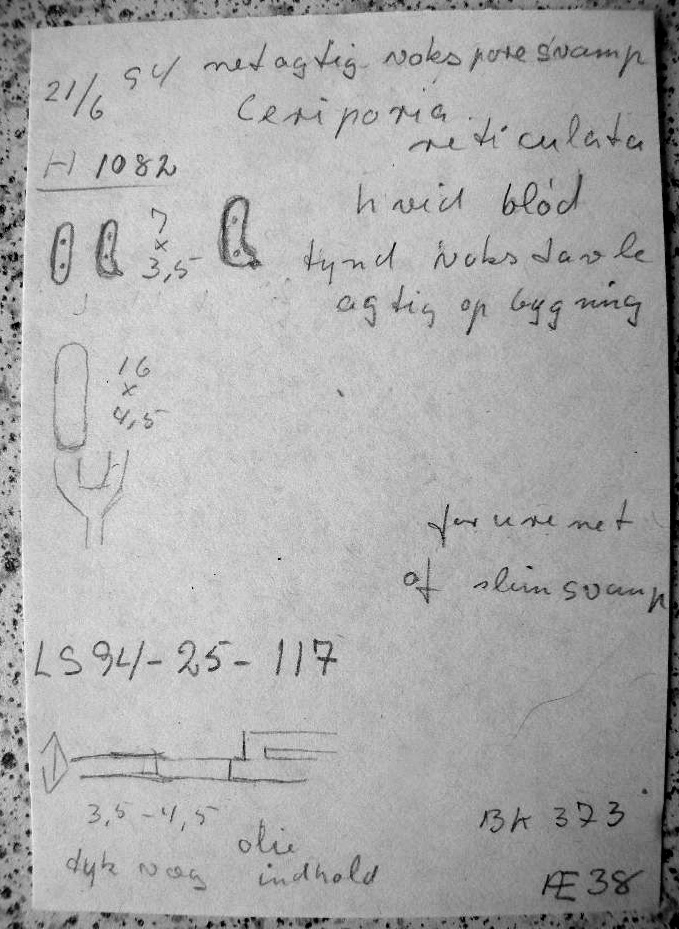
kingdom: Fungi
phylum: Basidiomycota
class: Agaricomycetes
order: Polyporales
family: Irpicaceae
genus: Ceriporia
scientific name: Ceriporia reticulata
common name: netagtig voksporesvamp
